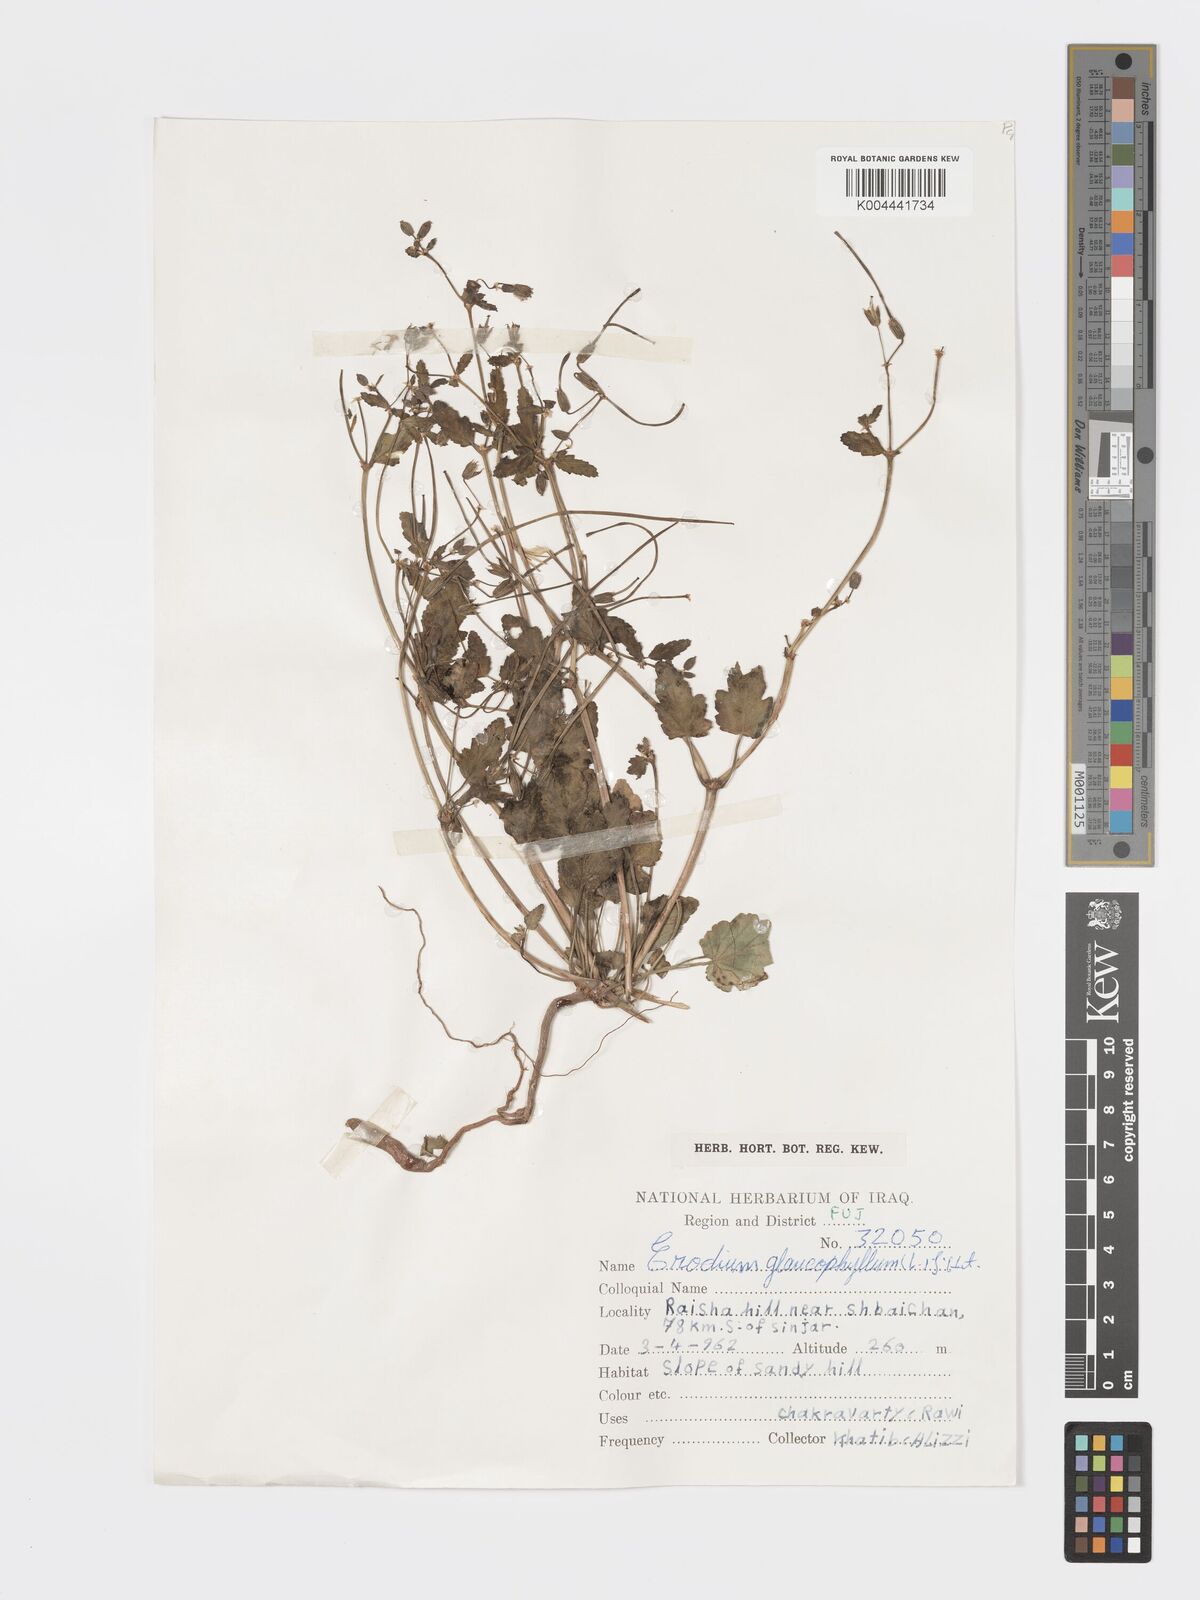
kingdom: Plantae
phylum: Tracheophyta
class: Magnoliopsida
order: Geraniales
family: Geraniaceae
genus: Erodium
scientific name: Erodium glaucophyllum
